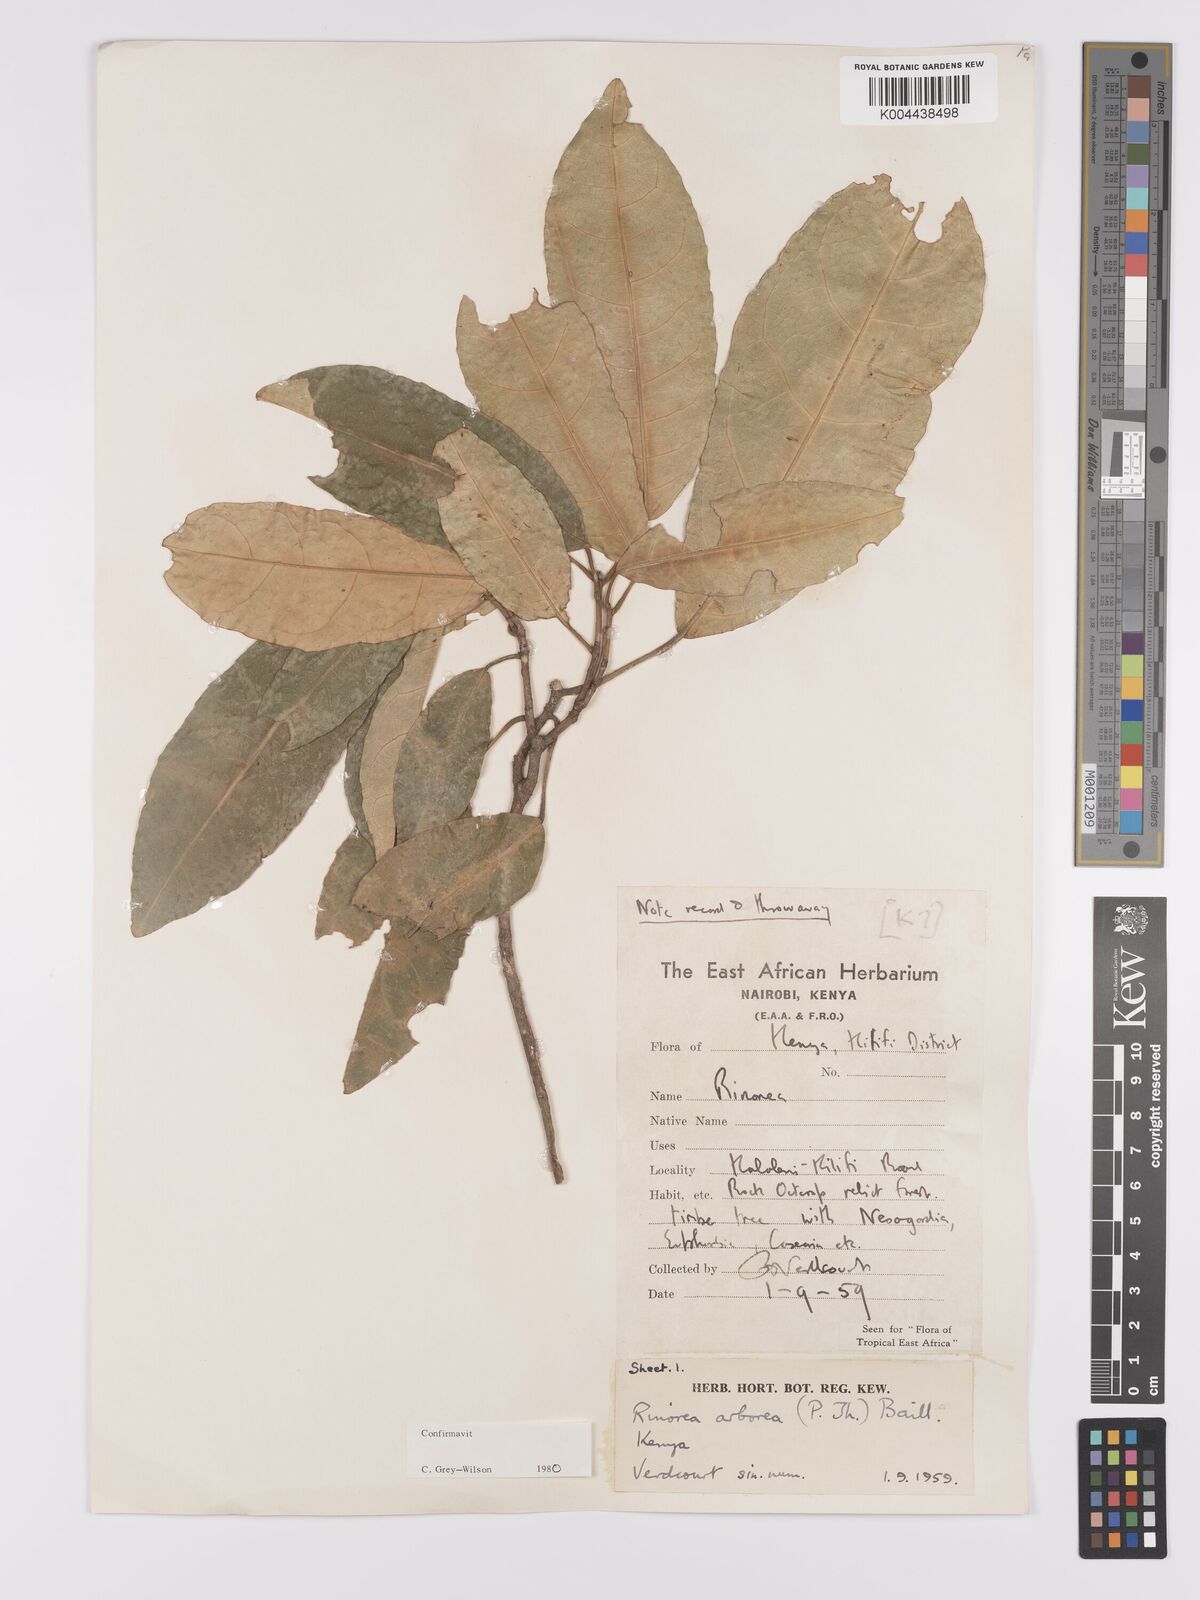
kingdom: Plantae
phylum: Tracheophyta
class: Magnoliopsida
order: Malpighiales
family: Violaceae
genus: Rinorea
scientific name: Rinorea arborea
